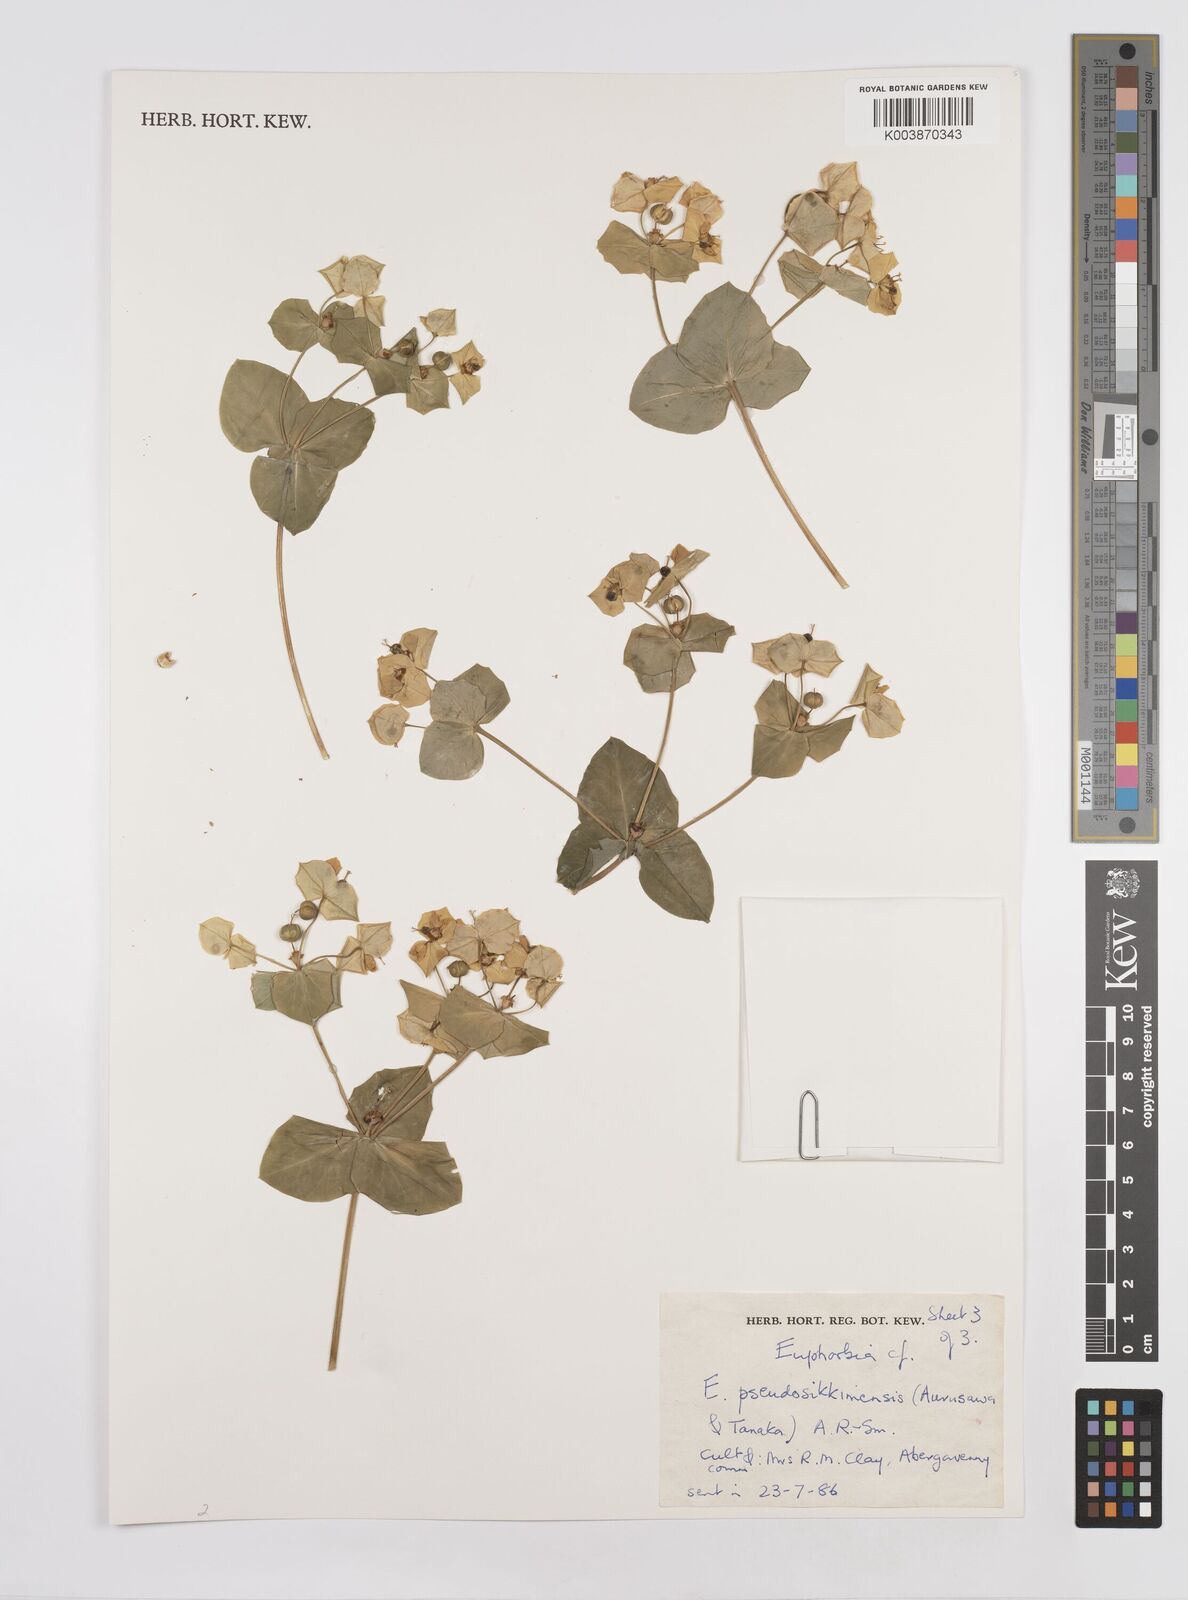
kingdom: Plantae
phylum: Tracheophyta
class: Magnoliopsida
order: Malpighiales
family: Euphorbiaceae
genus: Euphorbia
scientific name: Euphorbia pseudosikkimensis
